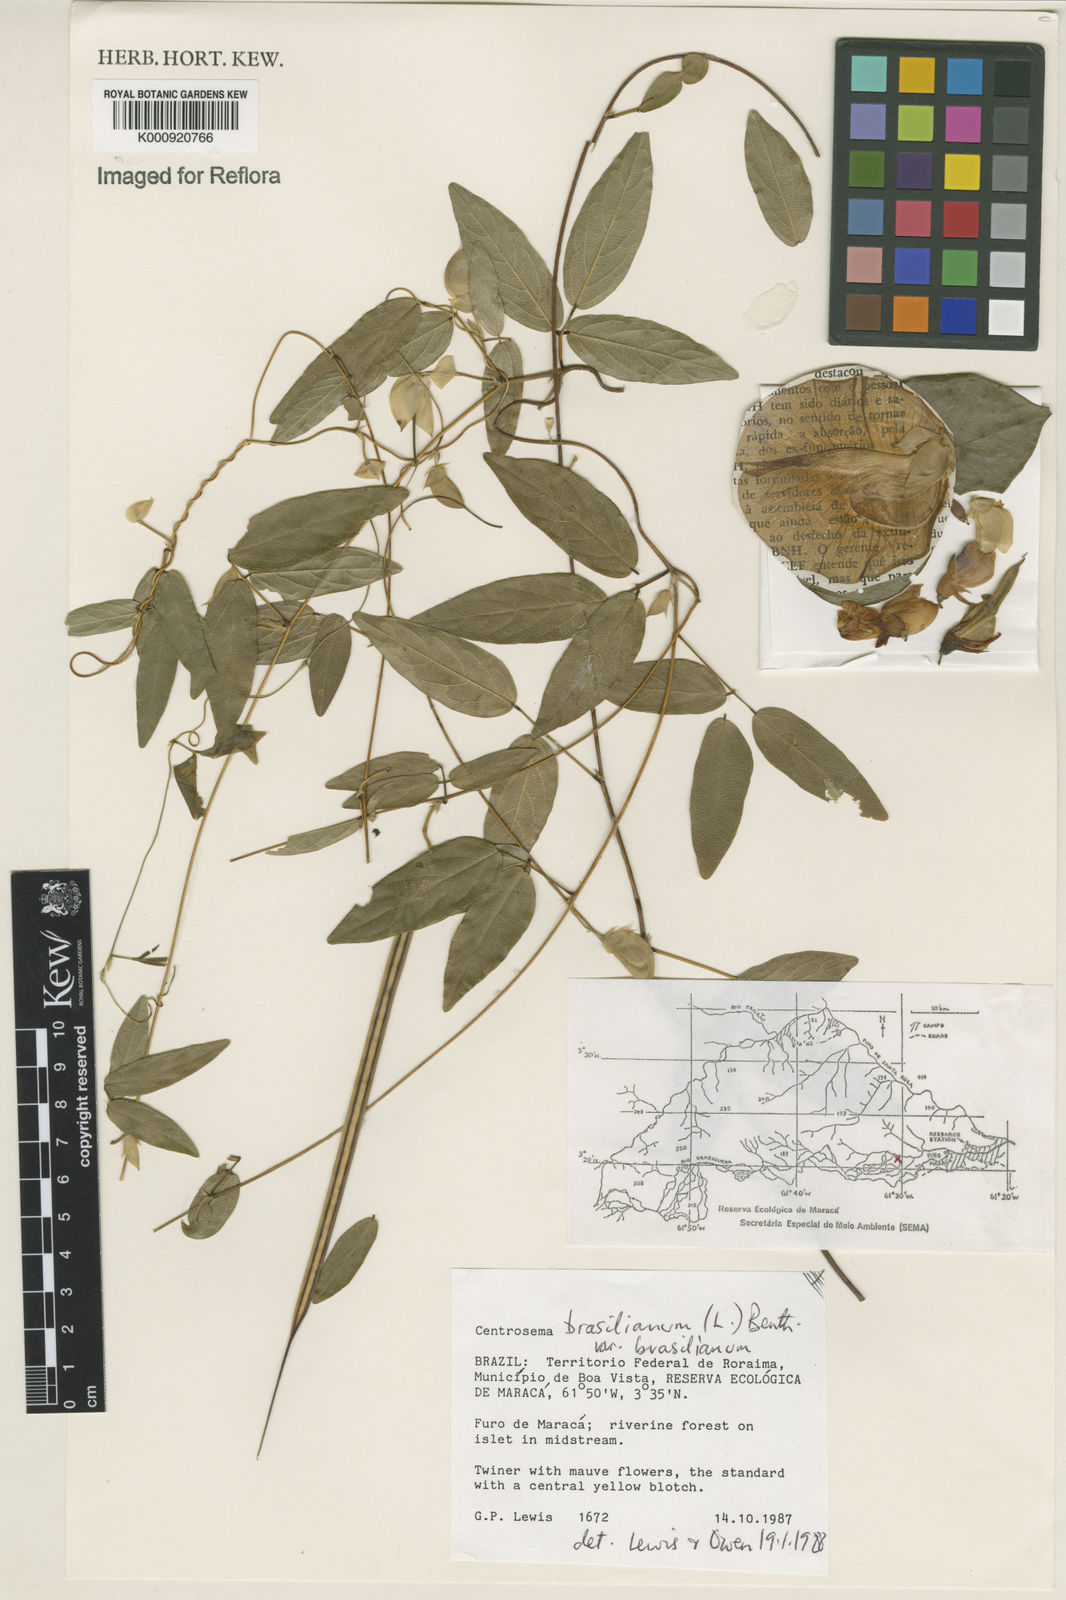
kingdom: Plantae
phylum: Tracheophyta
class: Magnoliopsida
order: Fabales
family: Fabaceae
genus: Centrosema
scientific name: Centrosema brasilianum
